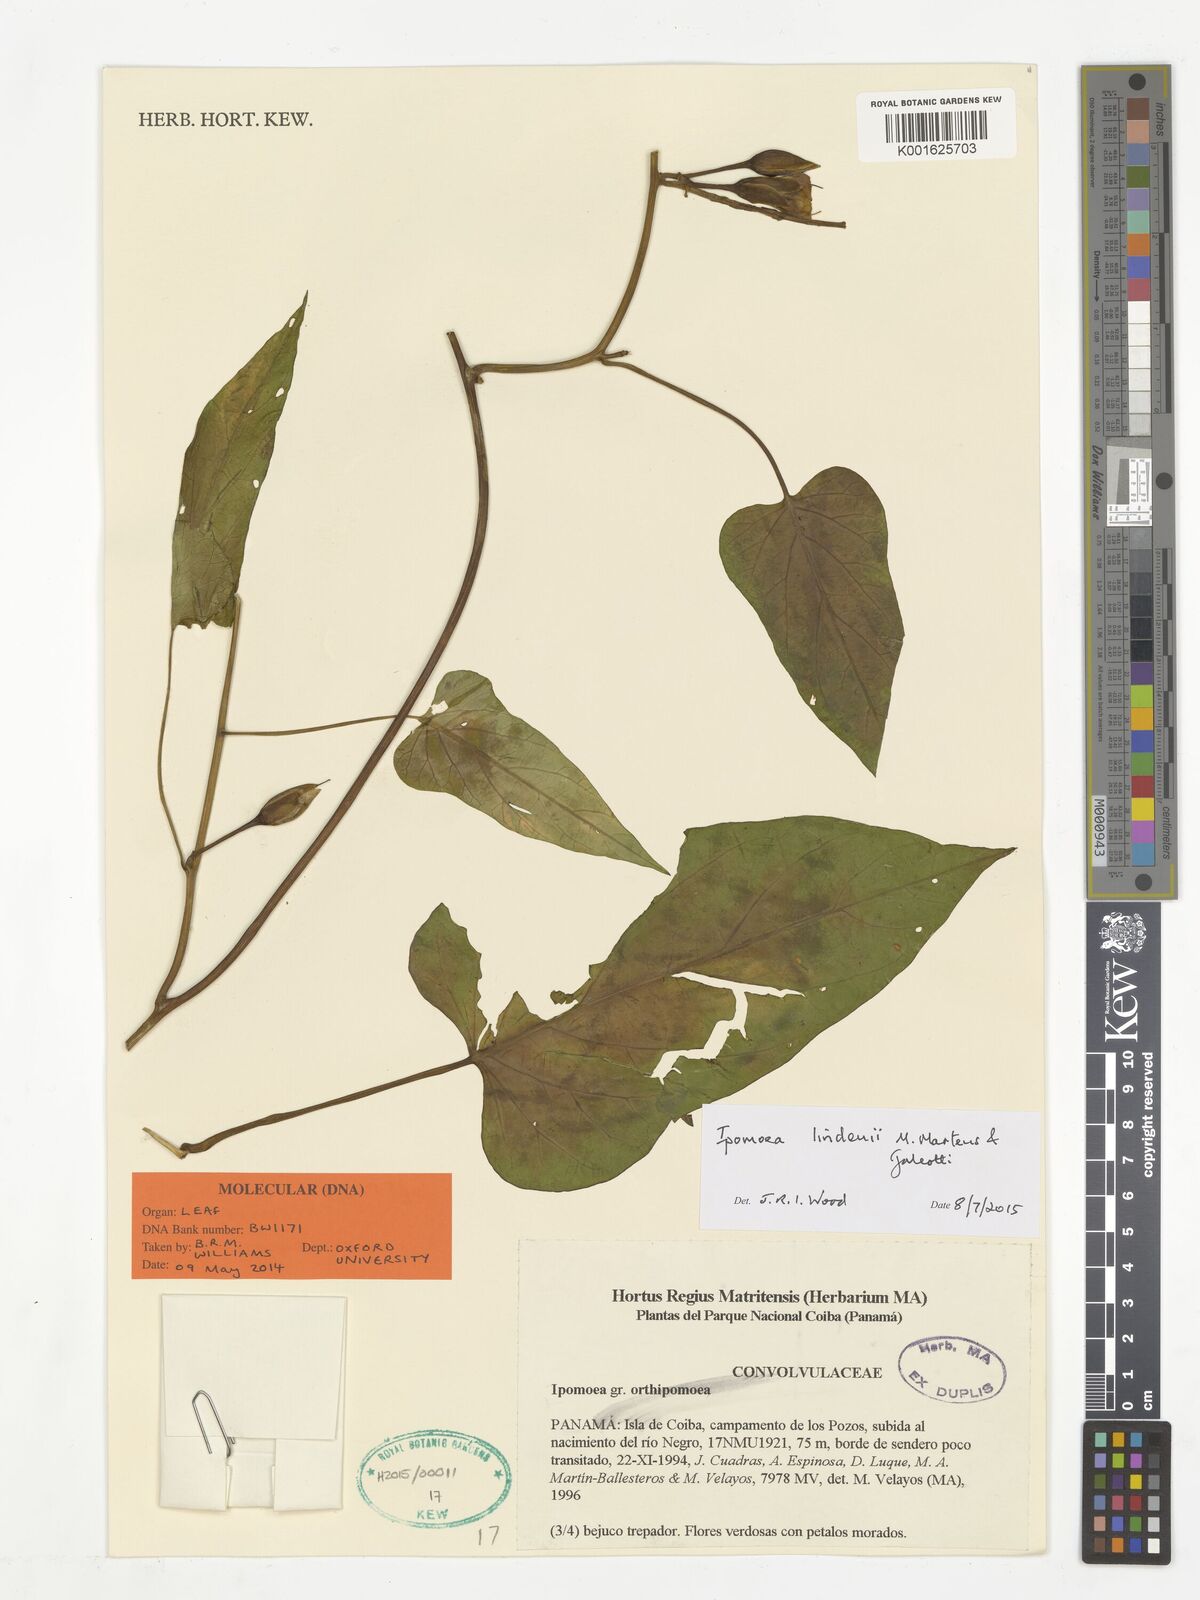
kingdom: Plantae
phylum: Tracheophyta
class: Magnoliopsida
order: Solanales
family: Convolvulaceae
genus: Ipomoea
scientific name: Ipomoea lindenii
